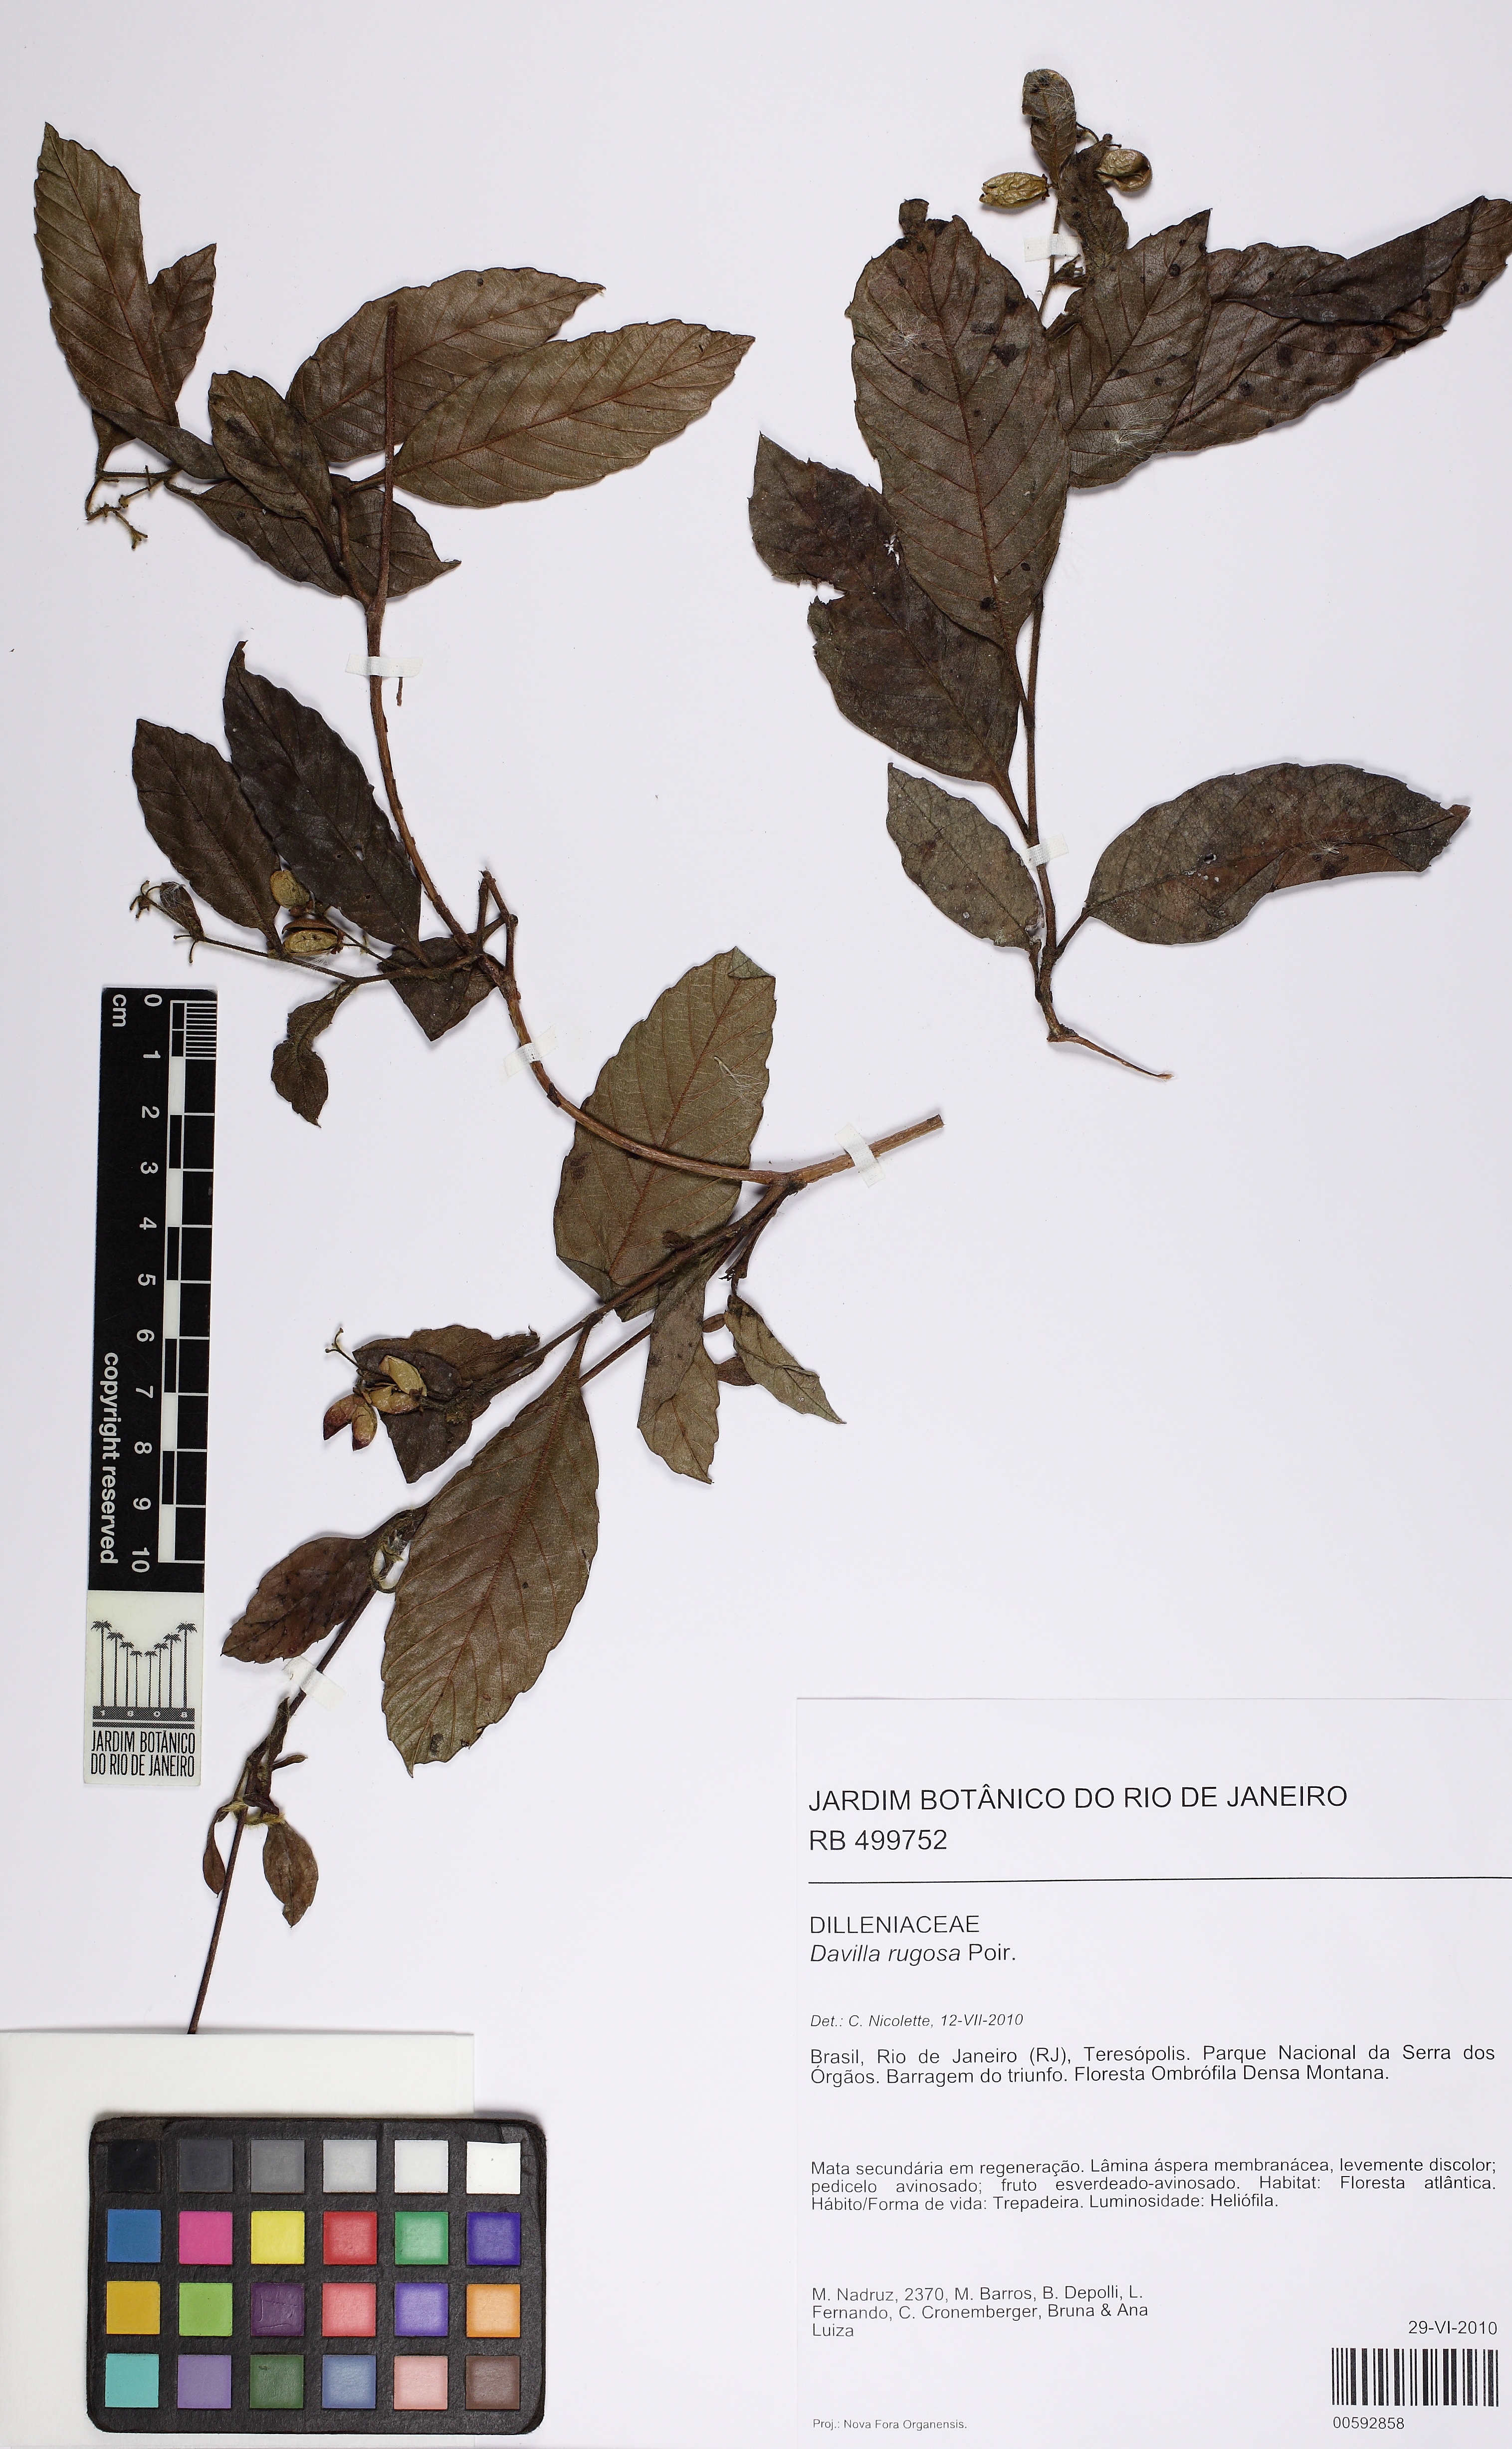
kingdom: Plantae
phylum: Tracheophyta
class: Magnoliopsida
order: Dilleniales
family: Dilleniaceae
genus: Davilla
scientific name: Davilla rugosa
